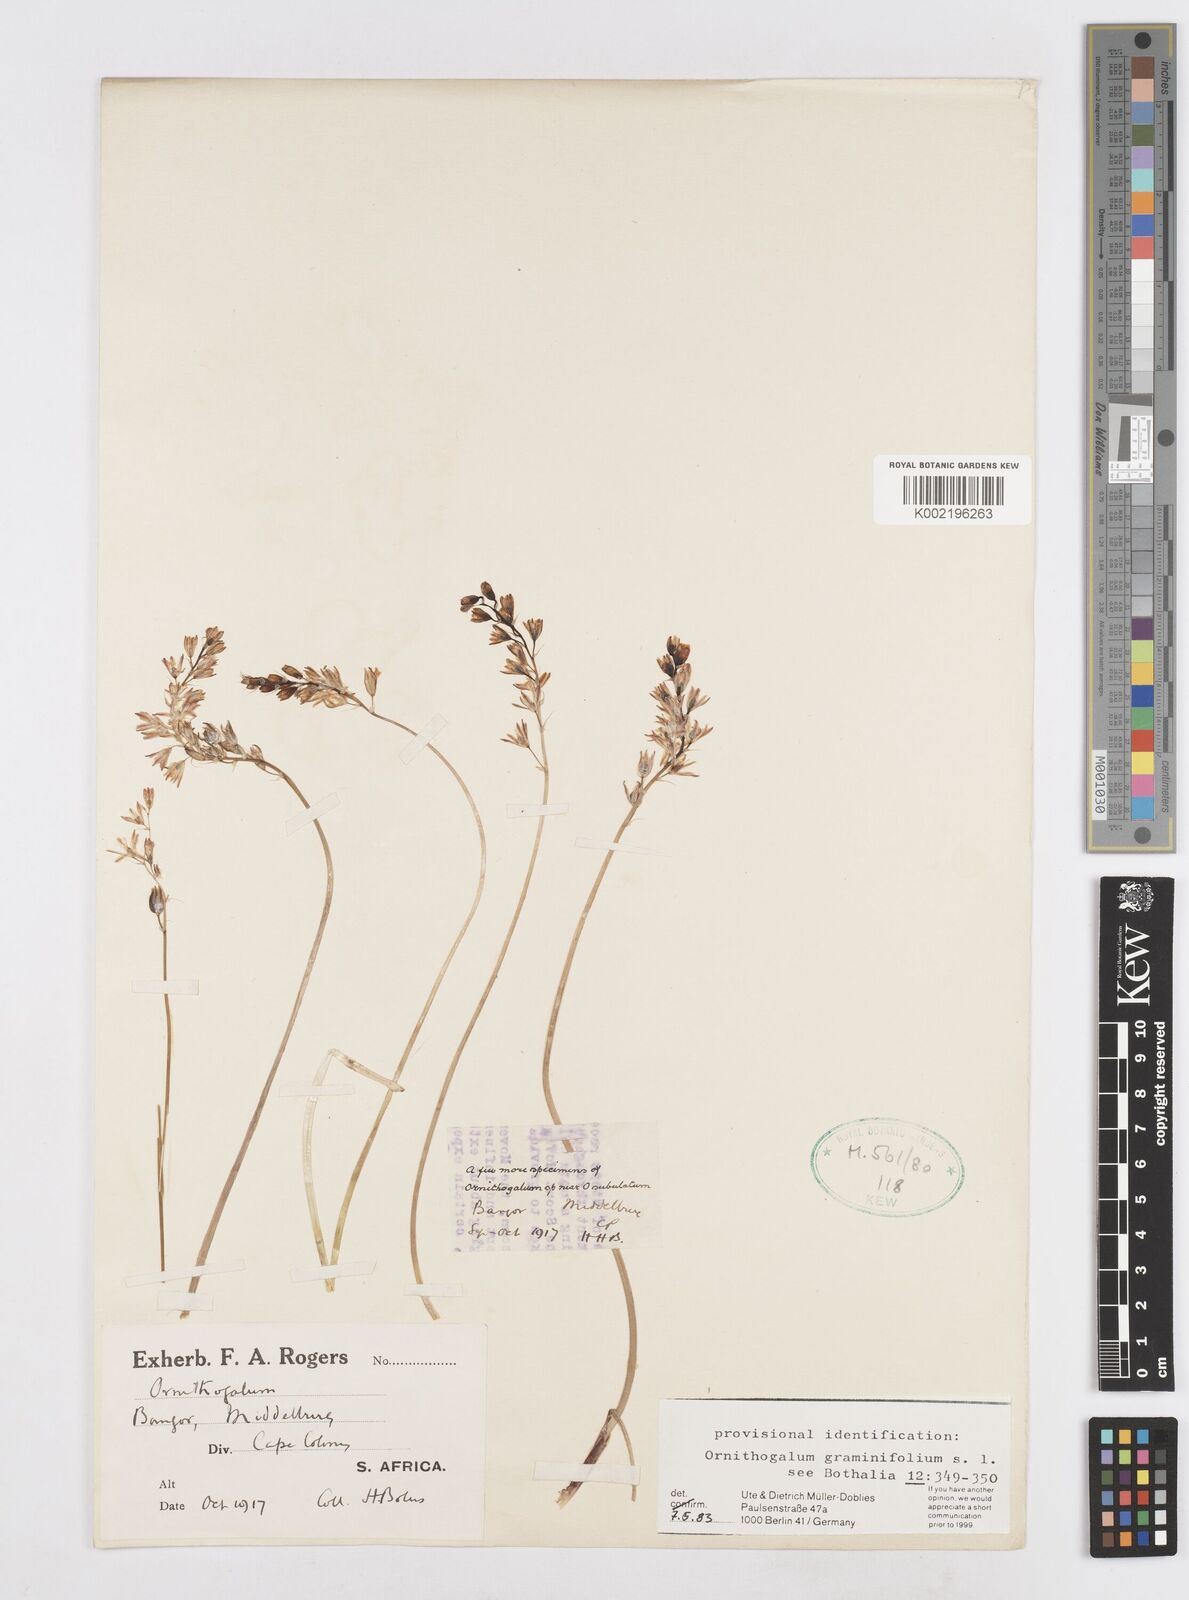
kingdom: Plantae
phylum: Tracheophyta
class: Liliopsida
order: Asparagales
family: Asparagaceae
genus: Ornithogalum
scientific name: Ornithogalum graminifolium
